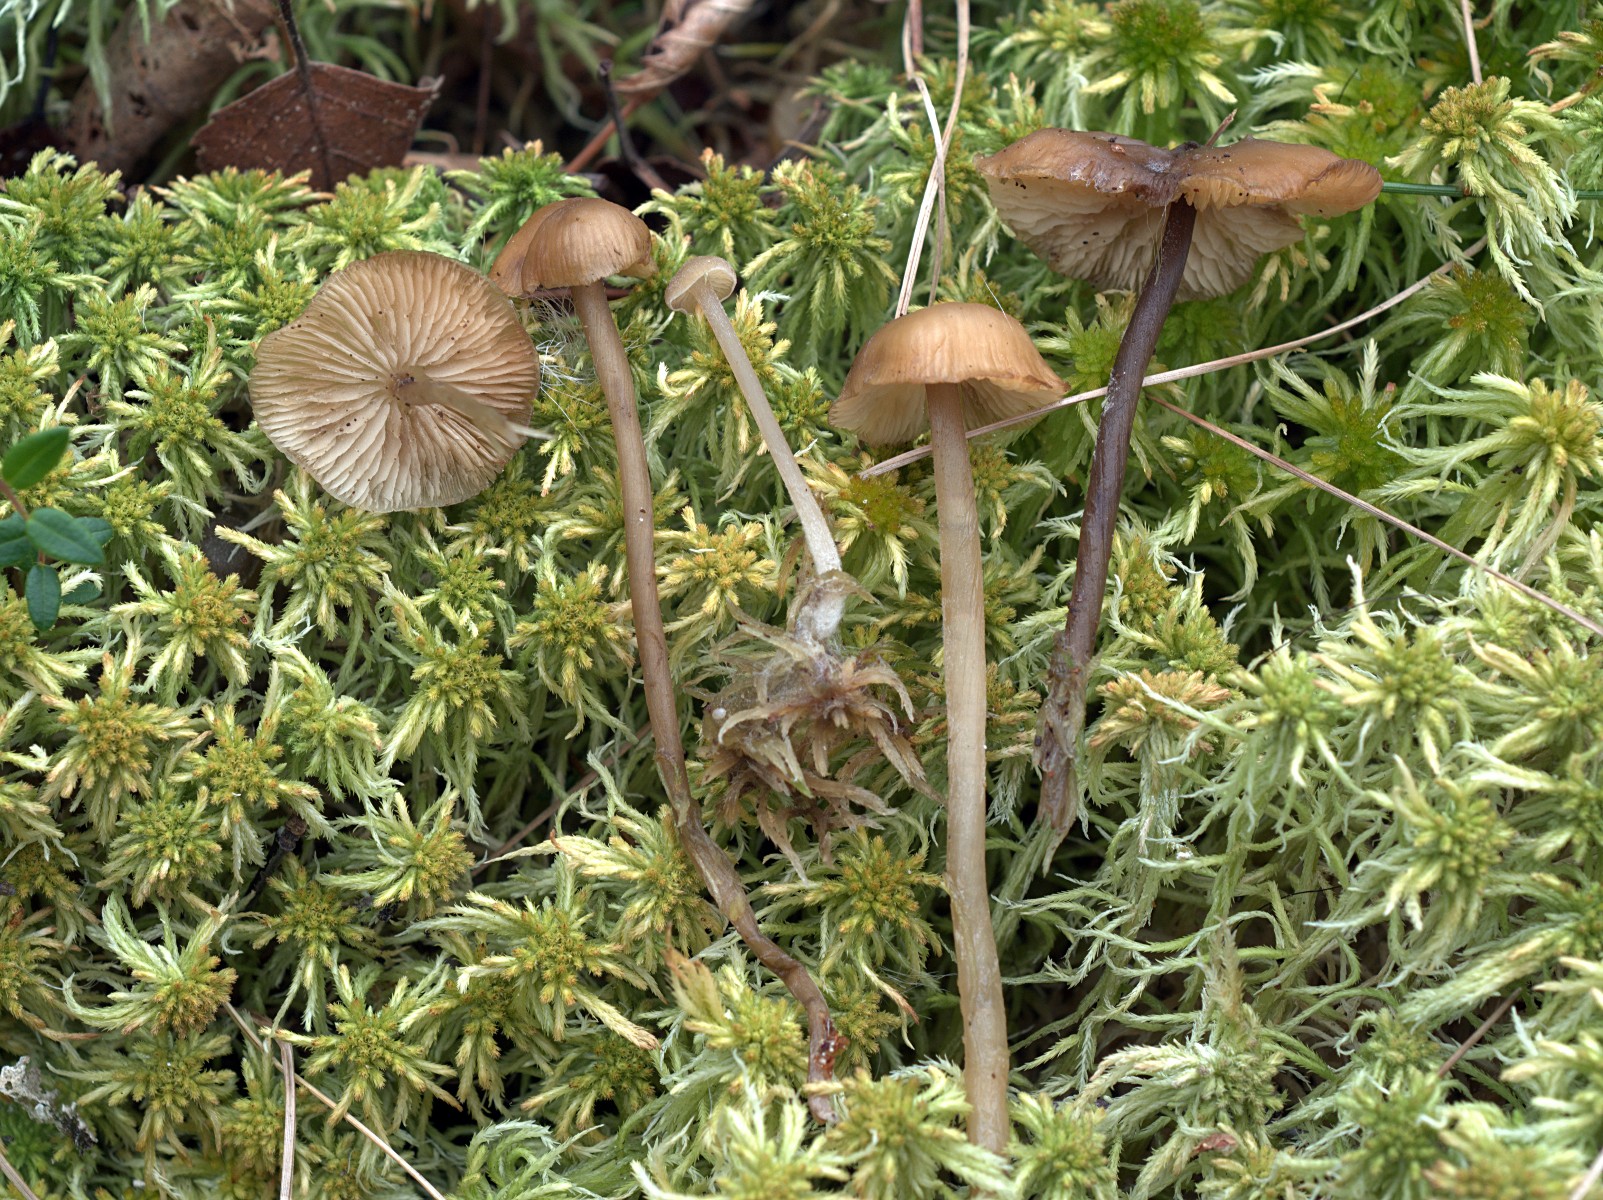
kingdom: Fungi
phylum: Basidiomycota
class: Agaricomycetes
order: Agaricales
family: Lyophyllaceae
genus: Sphagnurus
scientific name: Sphagnurus paluster
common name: tørvemos-gråblad
